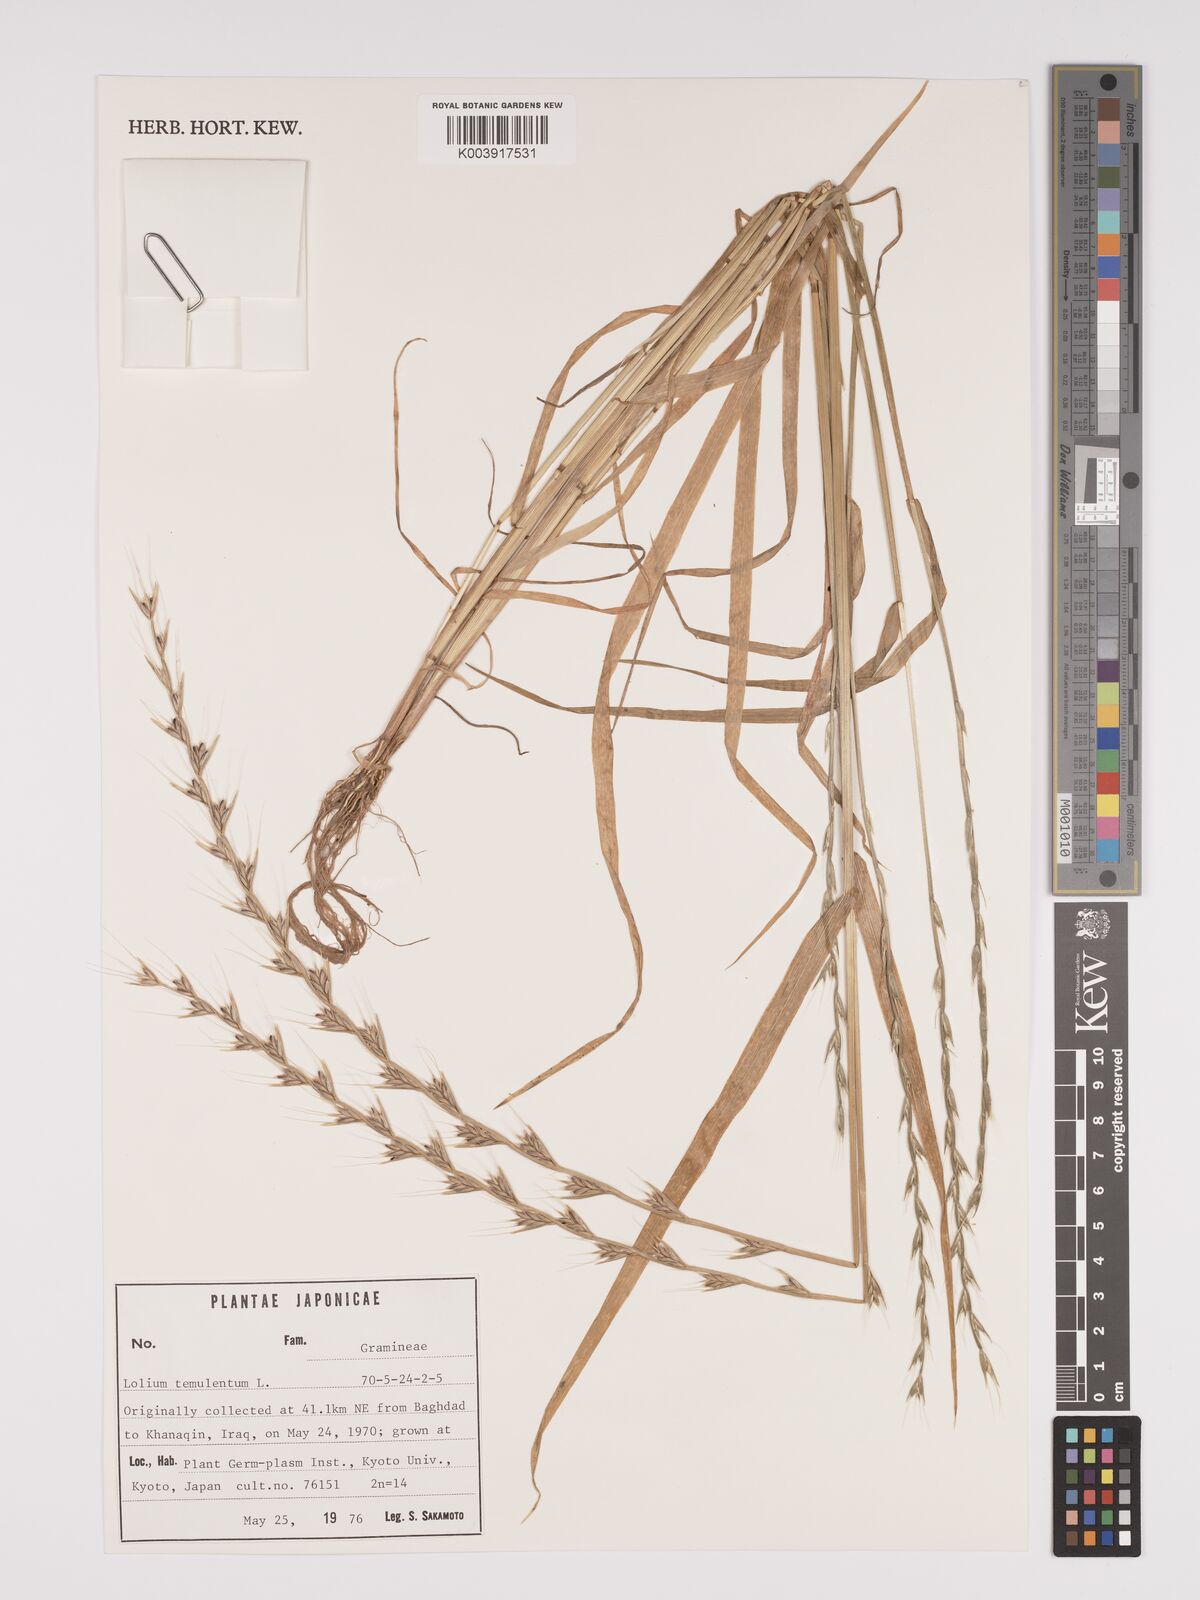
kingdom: Plantae
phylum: Tracheophyta
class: Liliopsida
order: Poales
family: Poaceae
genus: Lolium
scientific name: Lolium temulentum
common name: Darnel
